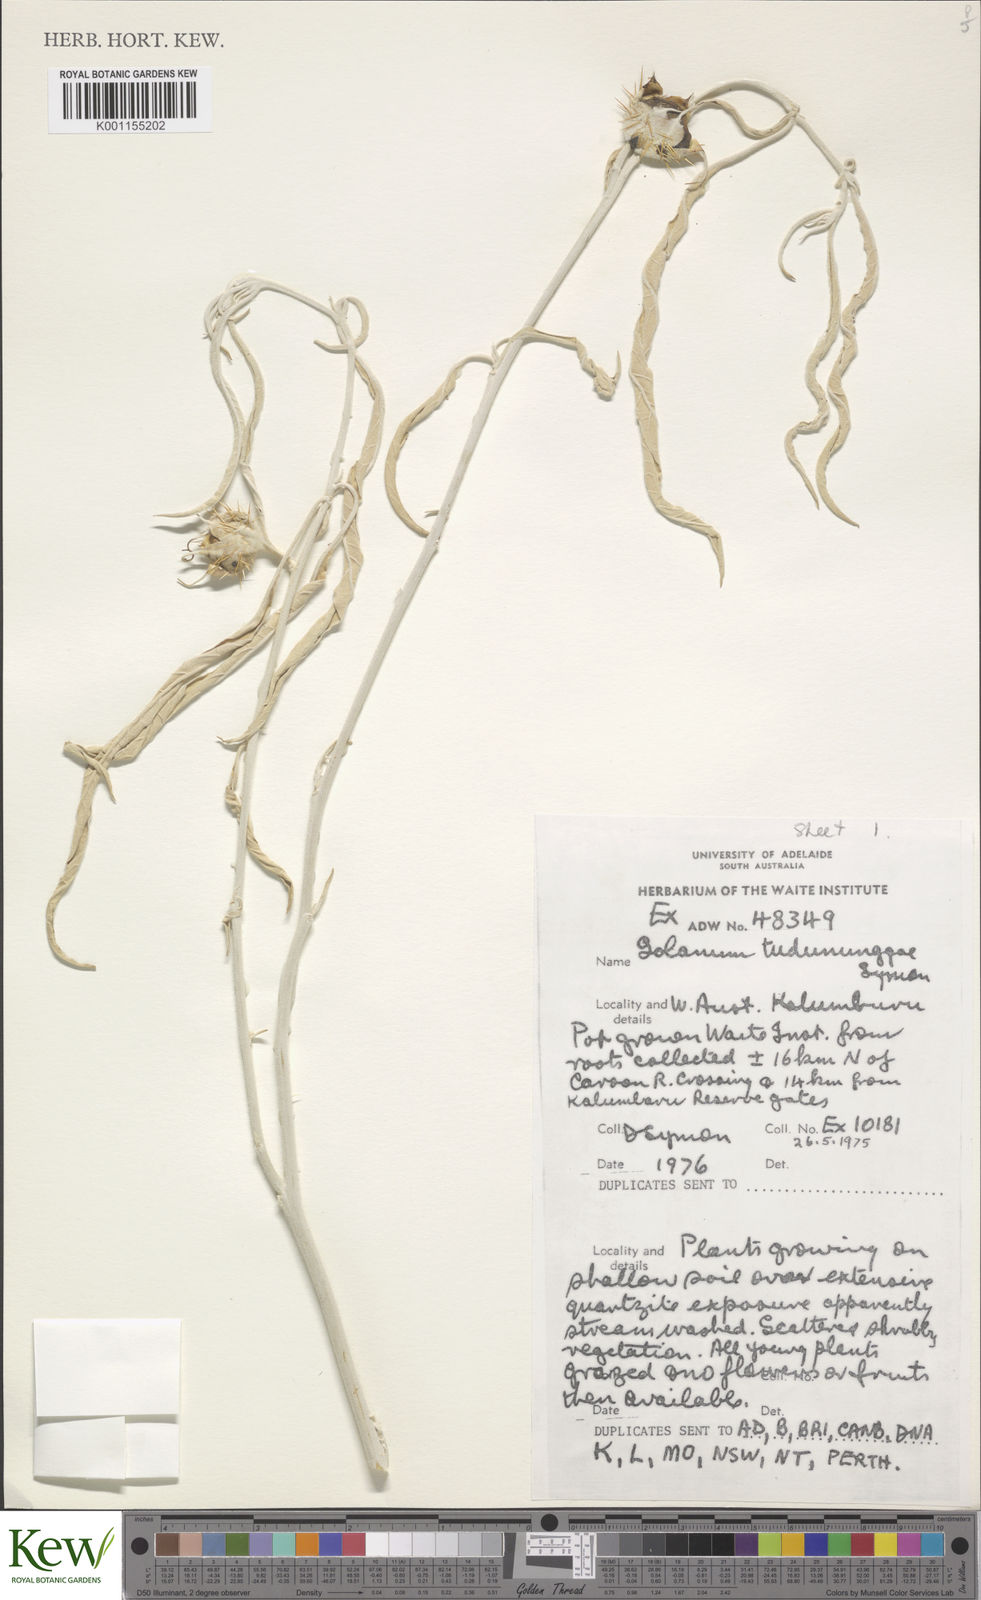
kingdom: Plantae
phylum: Tracheophyta
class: Magnoliopsida
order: Solanales
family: Solanaceae
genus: Solanum
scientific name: Solanum tudununggae
